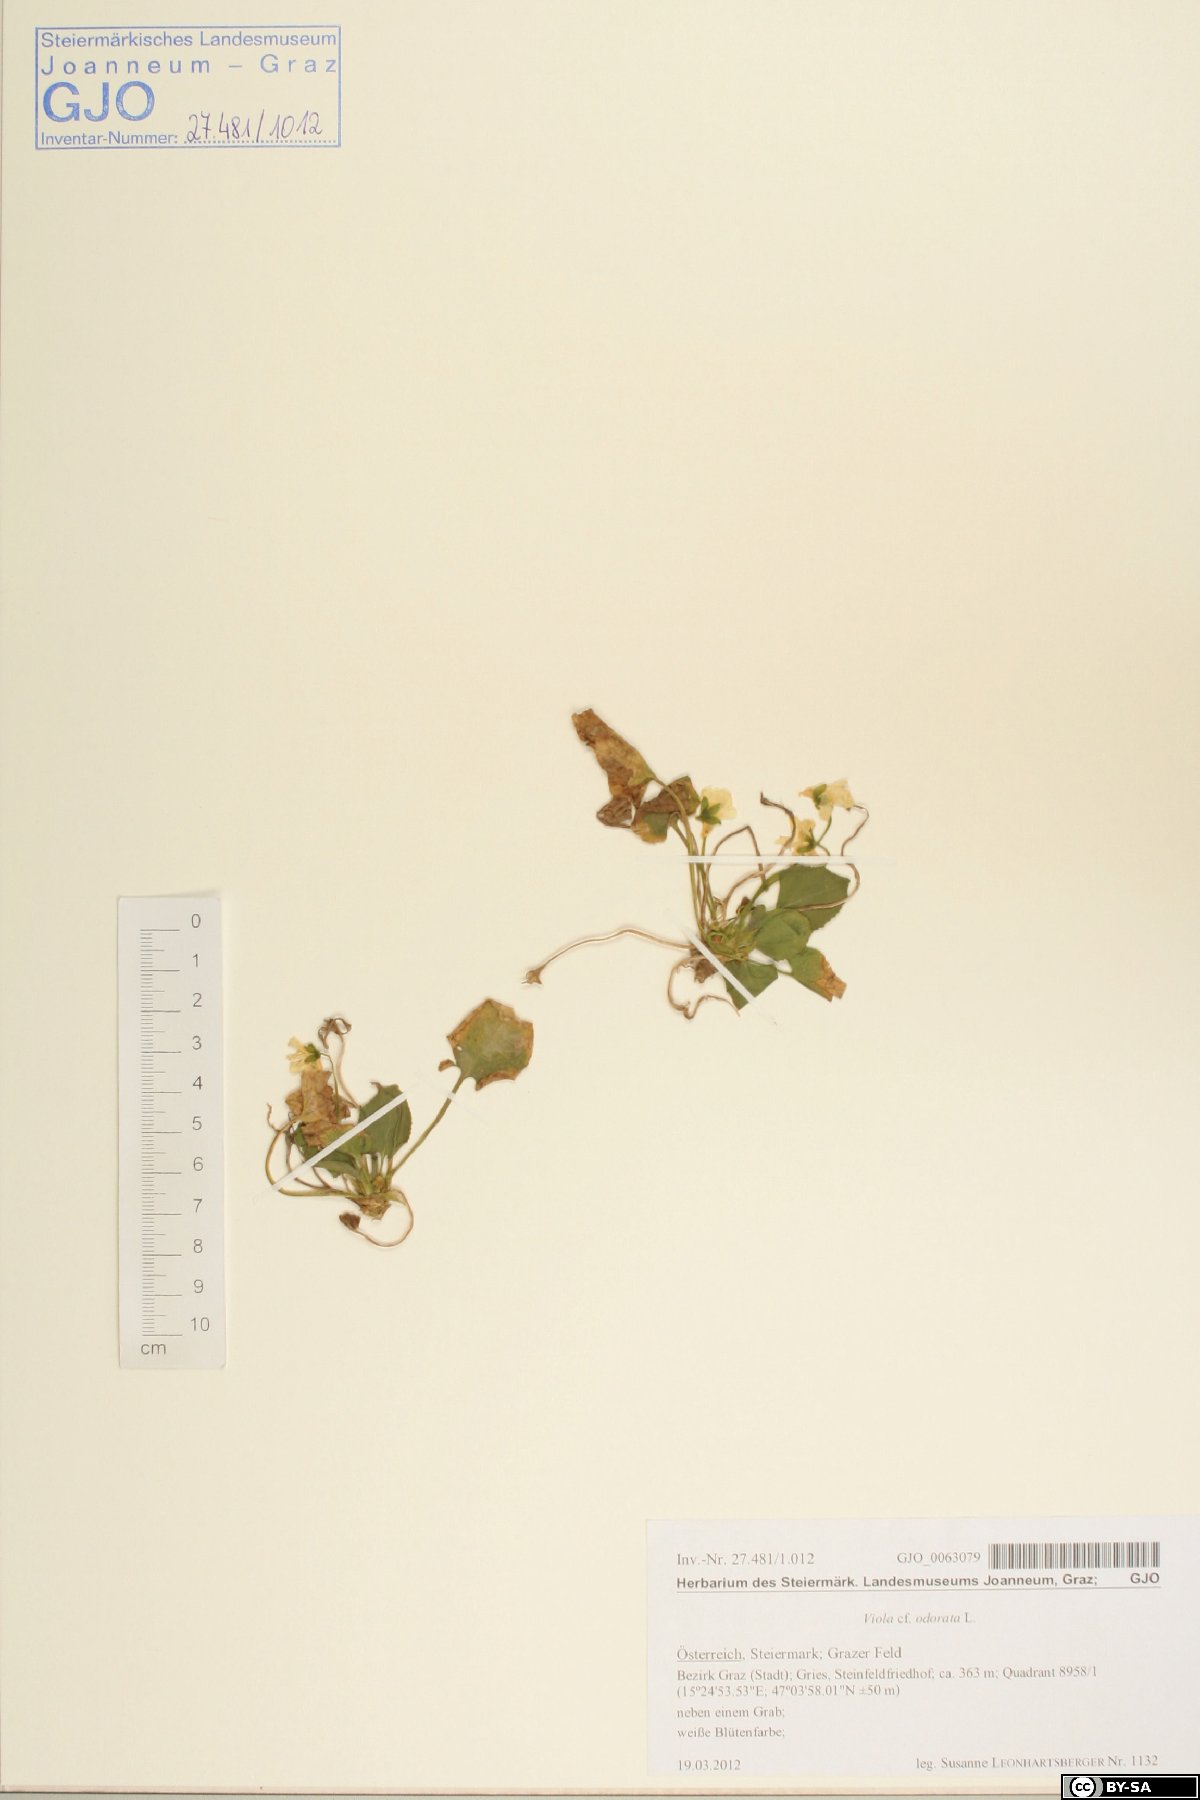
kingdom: Plantae
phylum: Tracheophyta
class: Magnoliopsida
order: Malpighiales
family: Violaceae
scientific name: Violaceae
